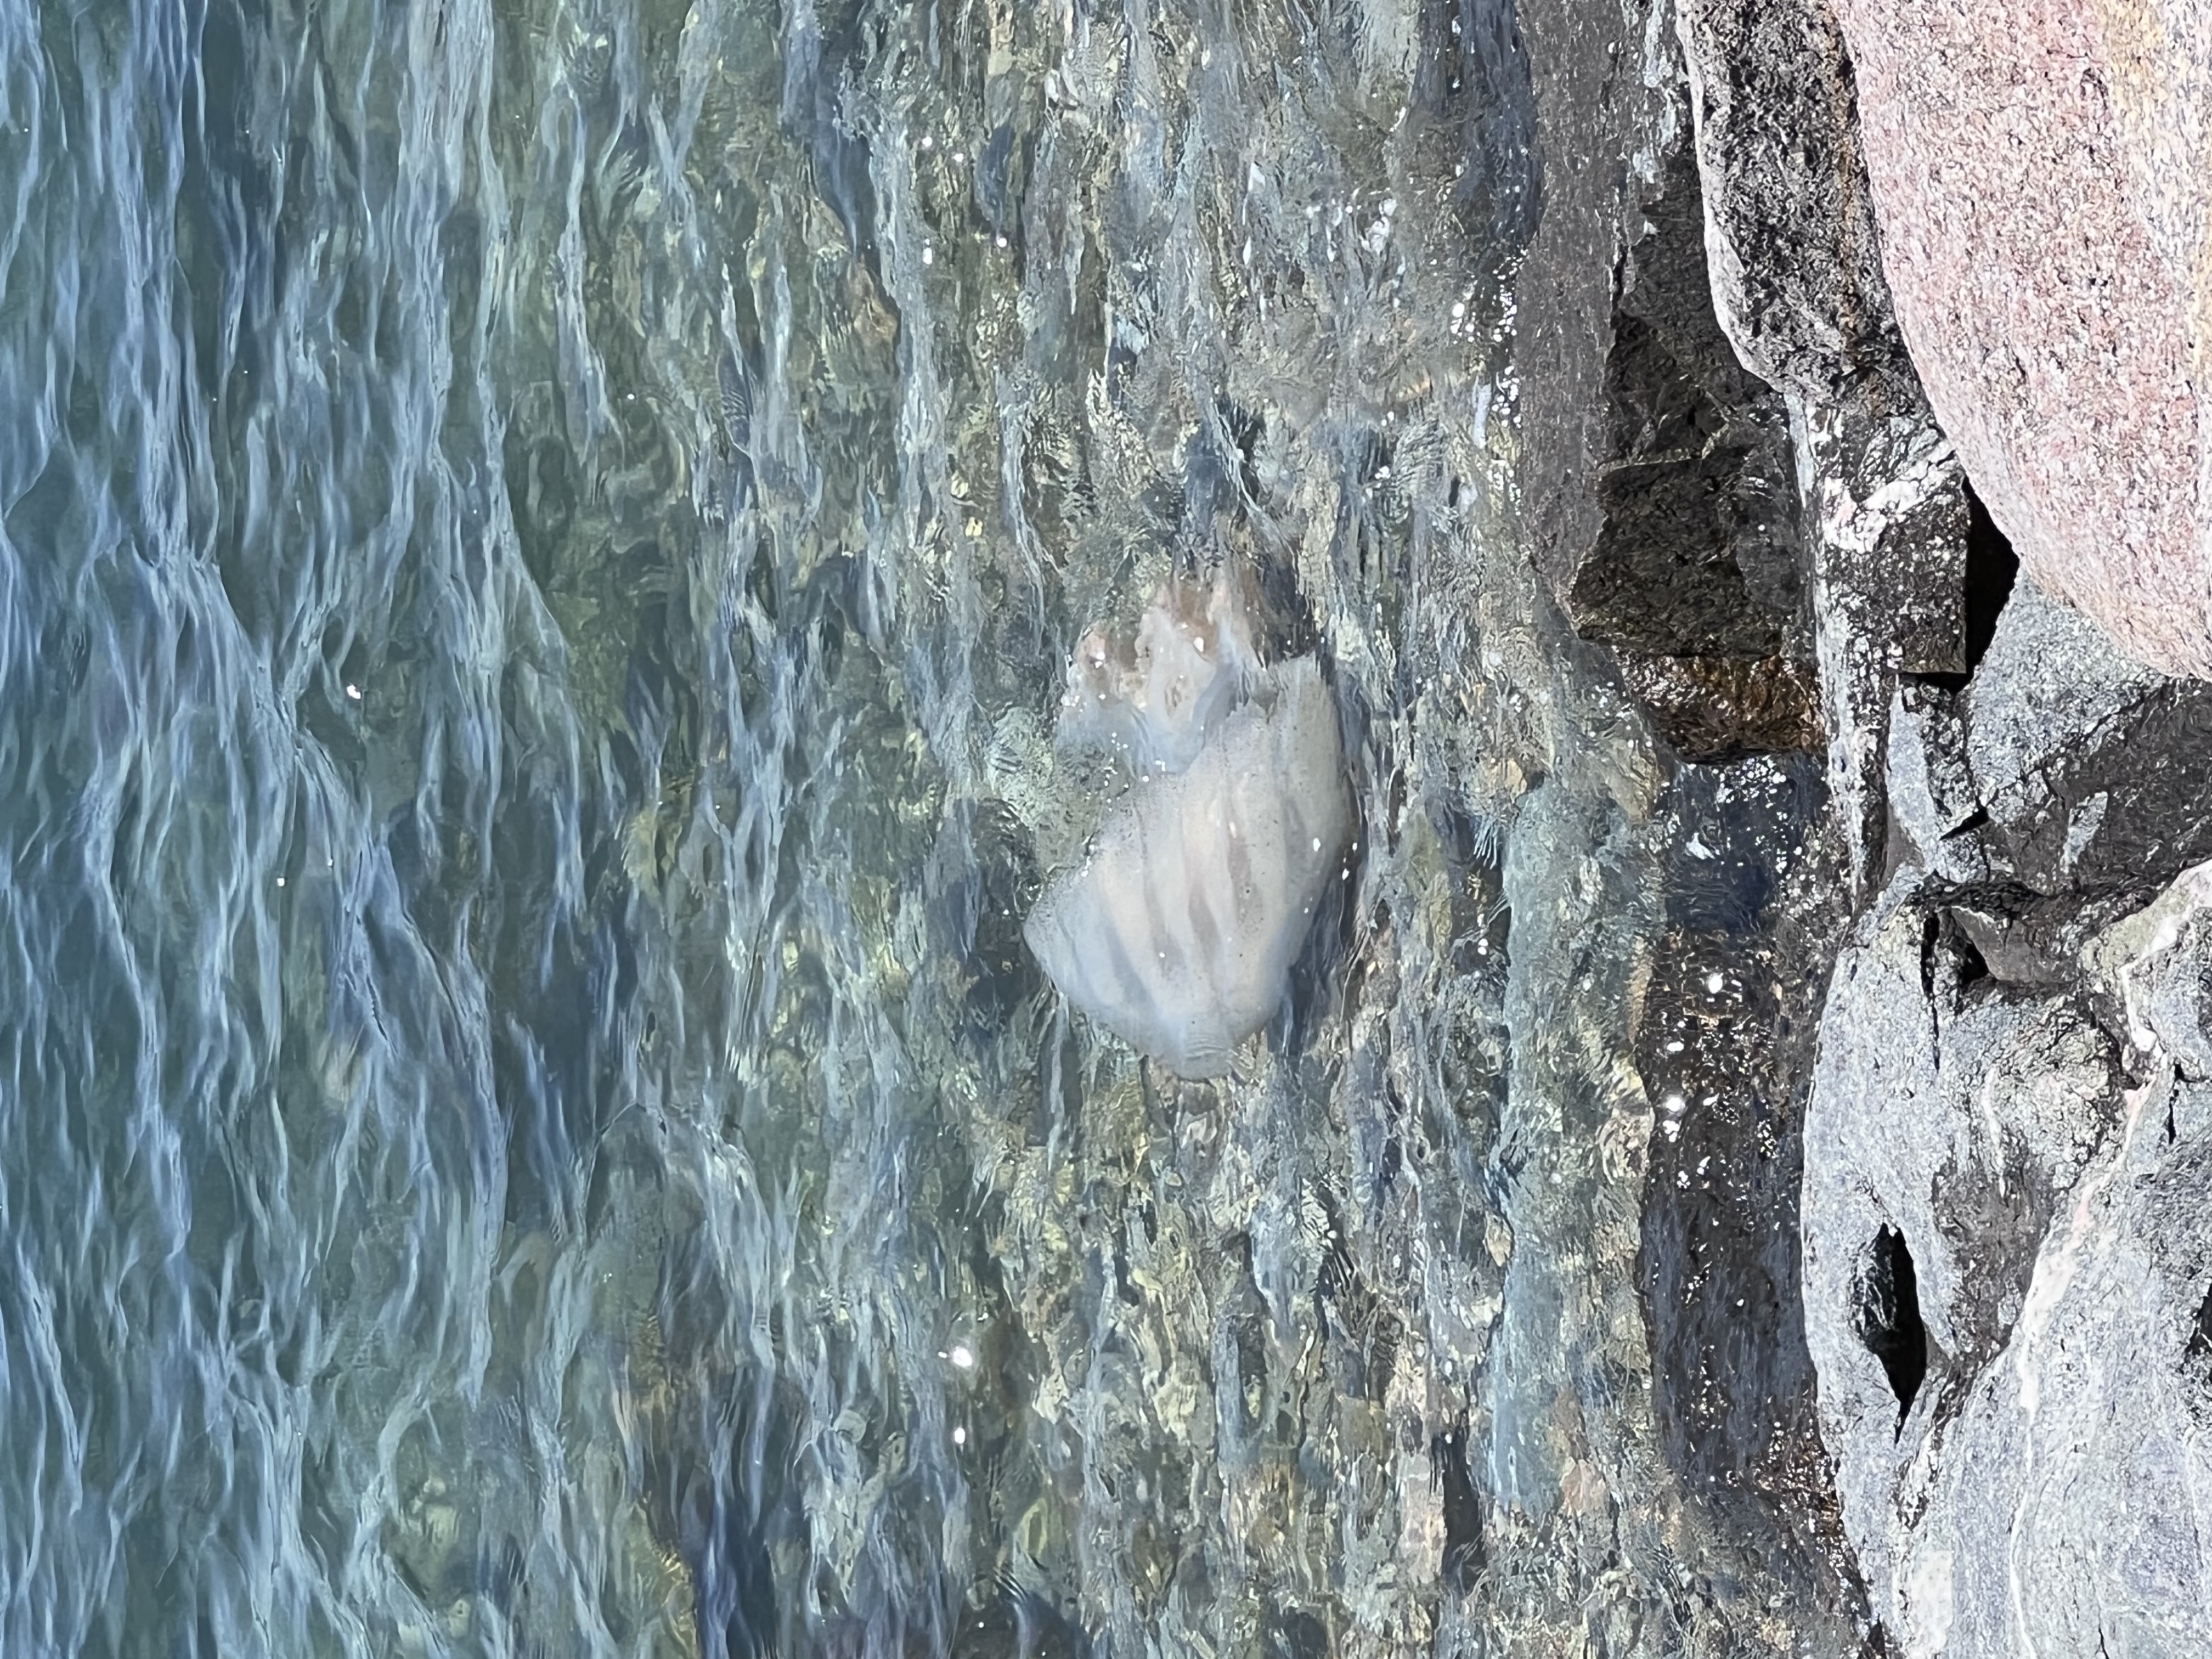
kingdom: Animalia
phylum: Cnidaria
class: Scyphozoa
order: Rhizostomeae
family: Rhizostomatidae
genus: Rhopilema
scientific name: Rhopilema hispidum
